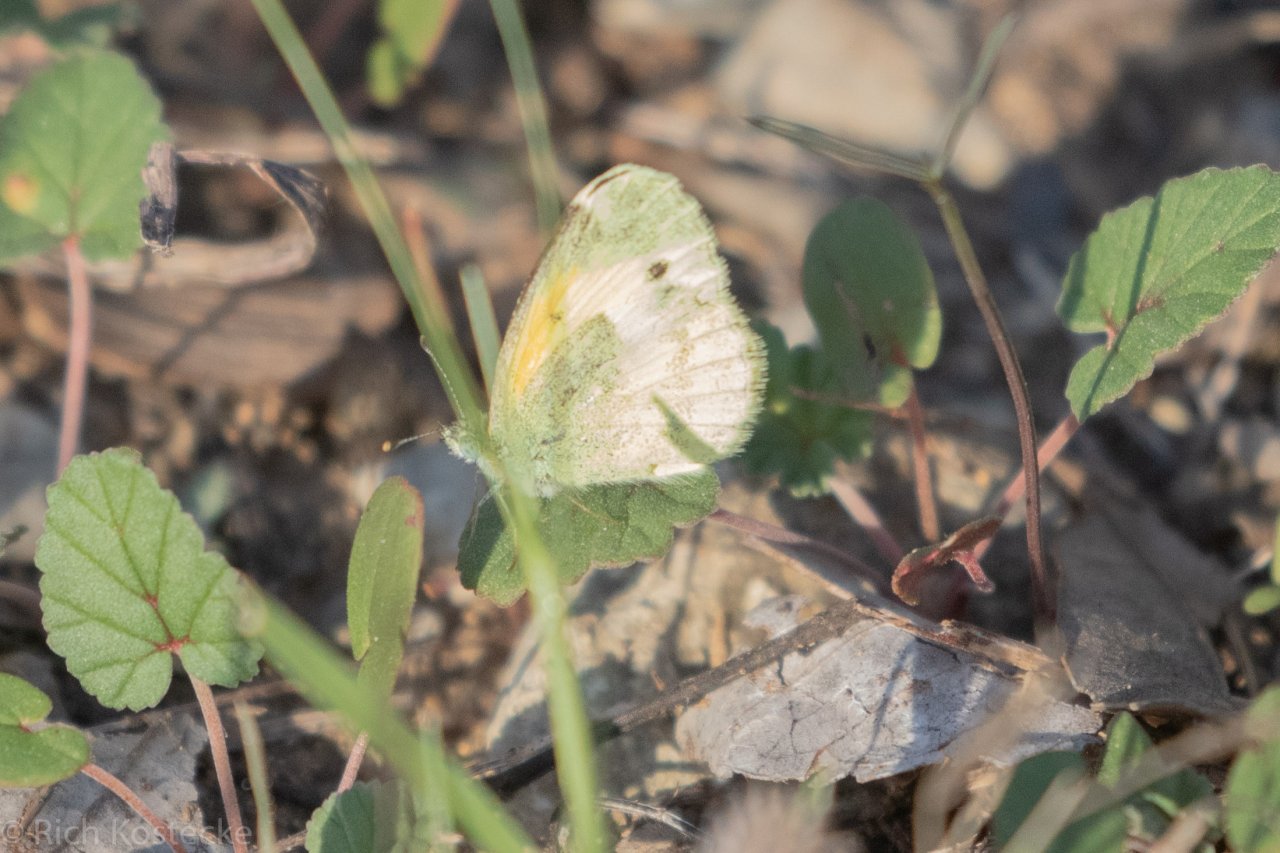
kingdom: Animalia
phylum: Arthropoda
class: Insecta
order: Lepidoptera
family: Pieridae
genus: Nathalis
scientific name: Nathalis iole
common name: Dainty Sulphur
